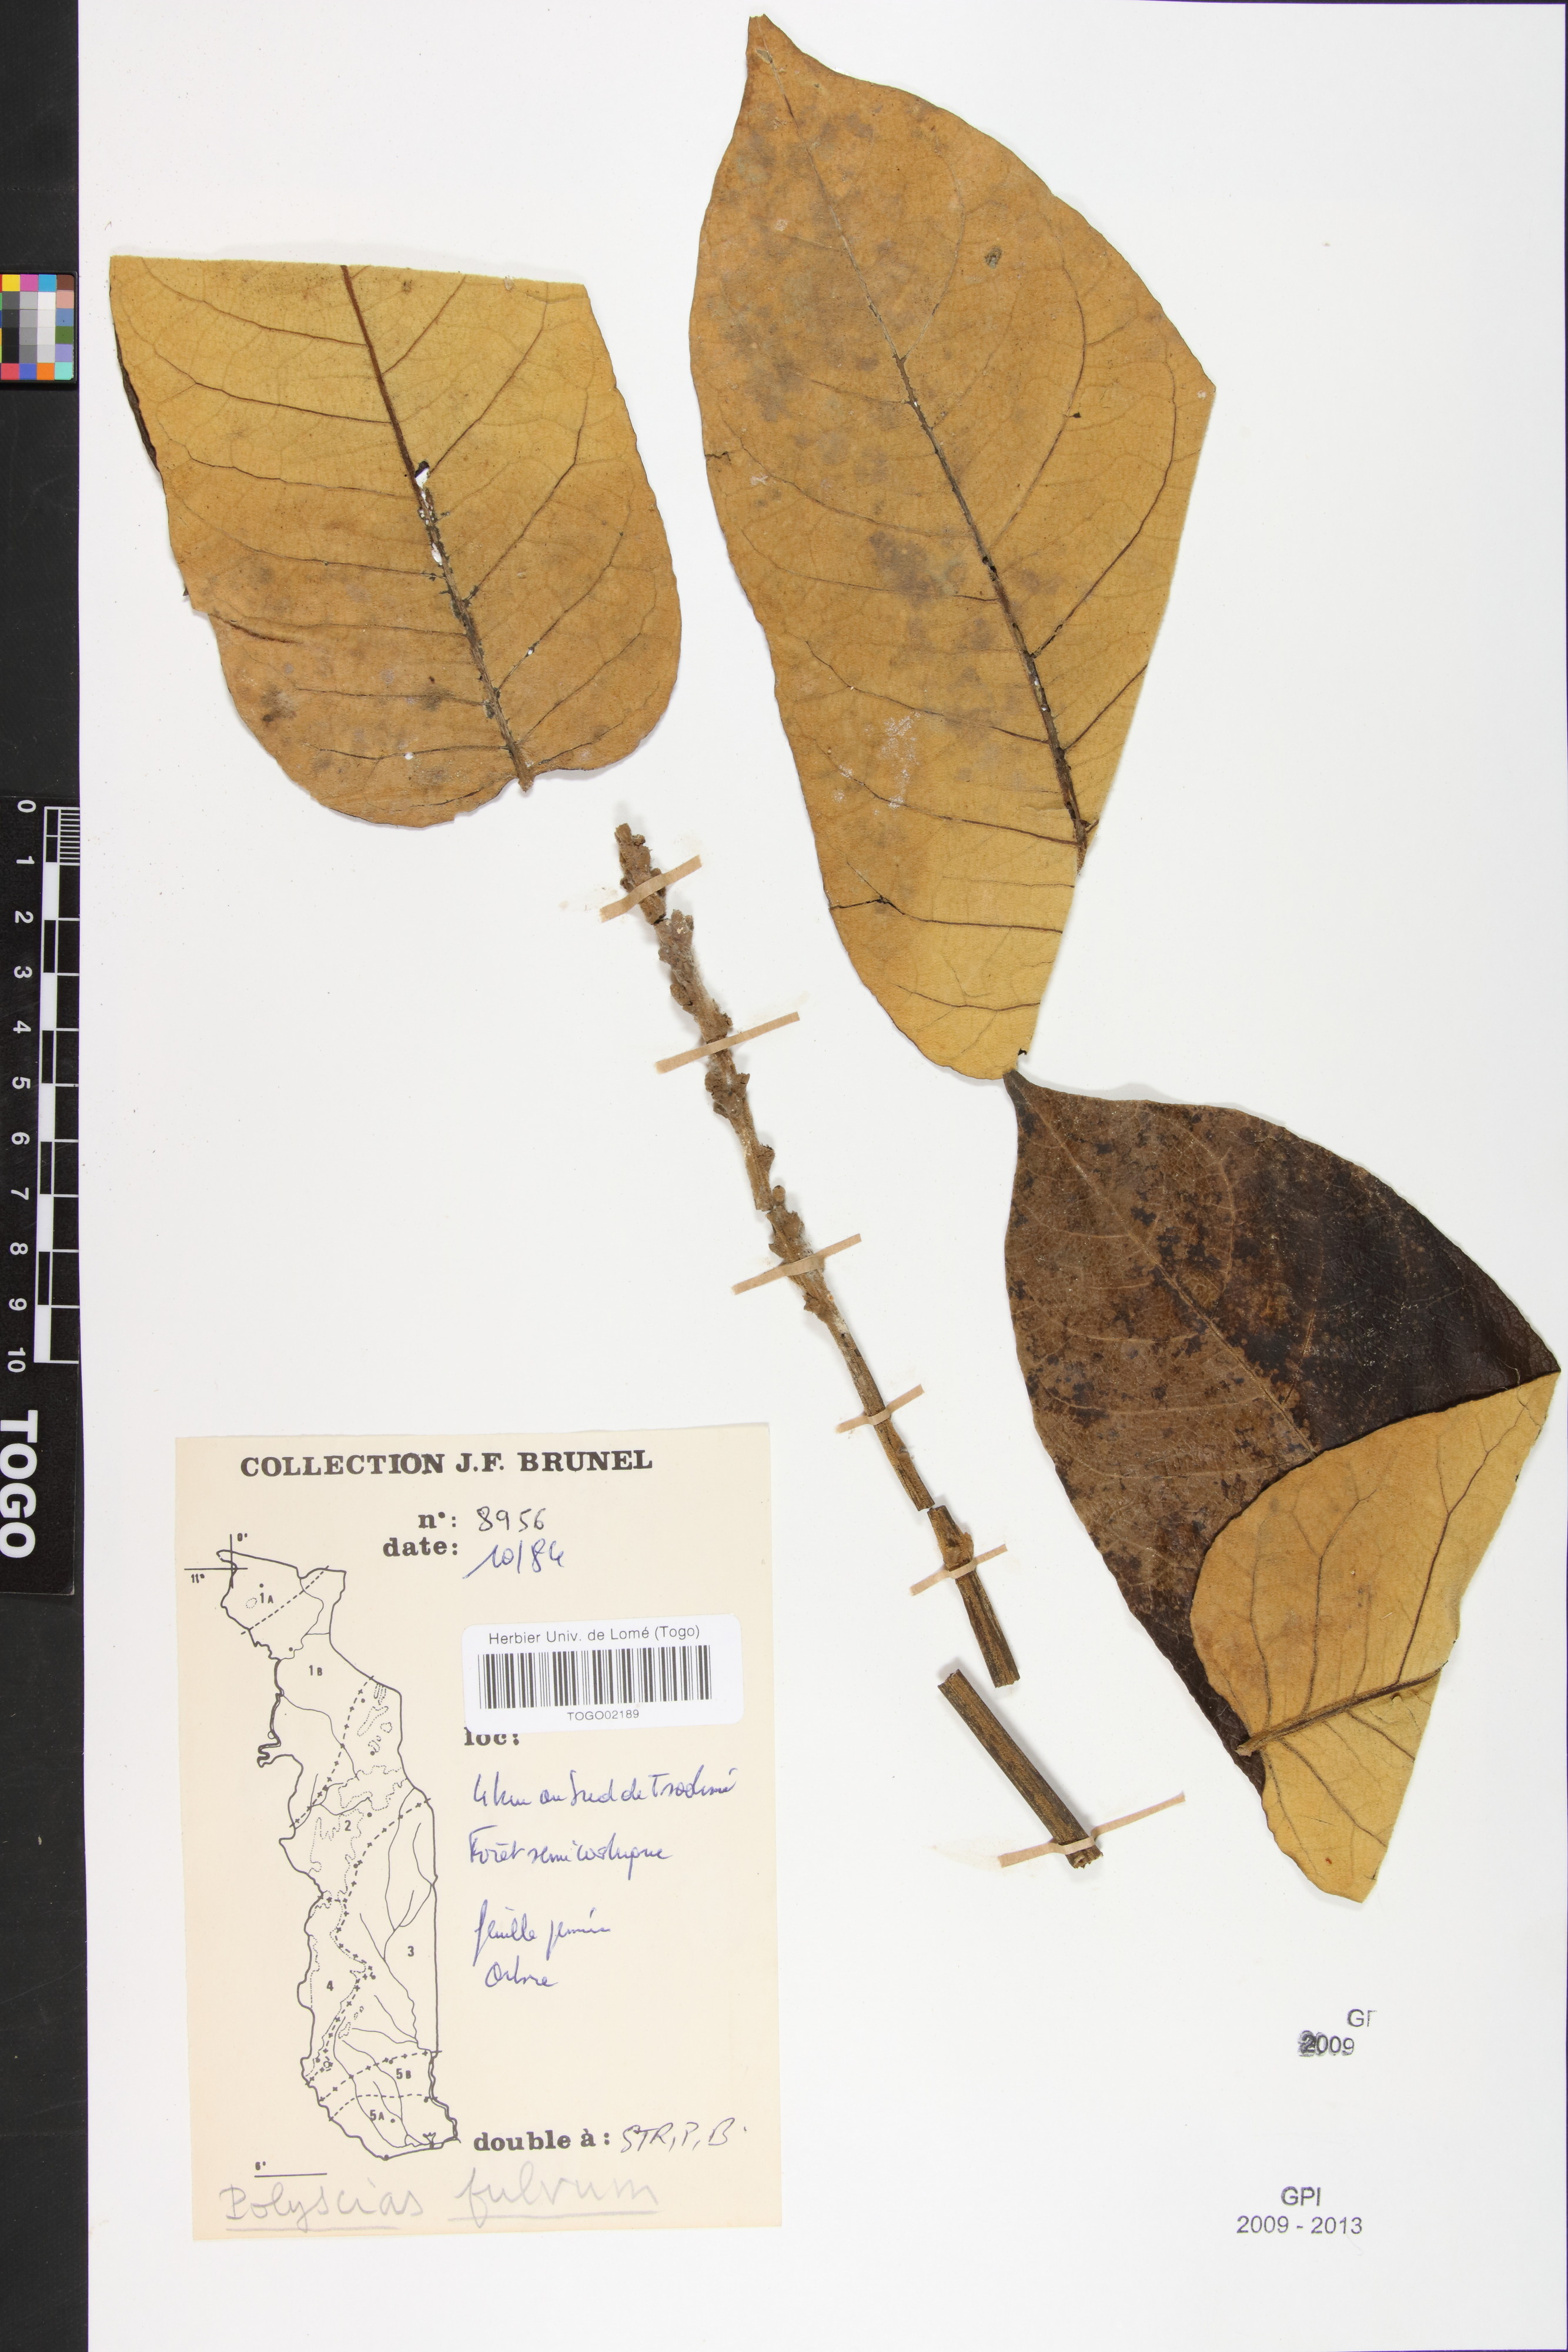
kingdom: Plantae
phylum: Tracheophyta
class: Magnoliopsida
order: Apiales
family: Araliaceae
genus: Polyscias
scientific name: Polyscias fulva
